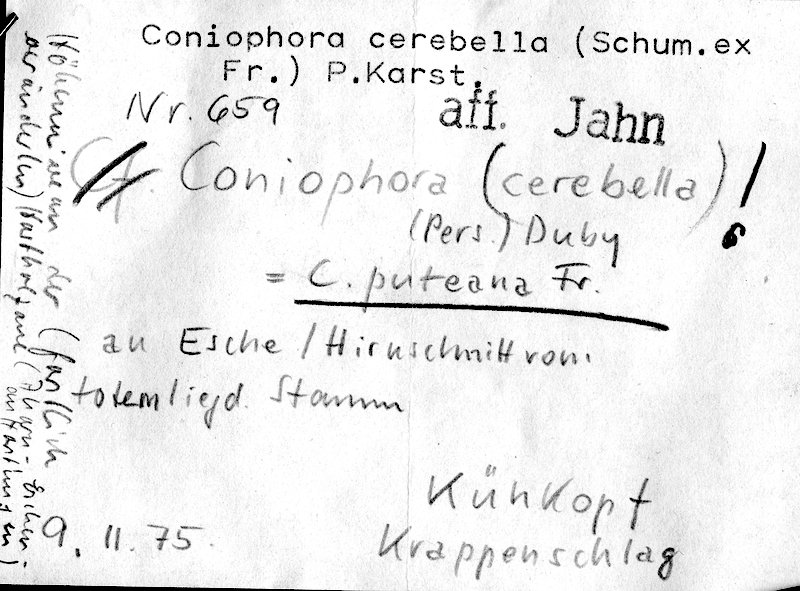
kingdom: Fungi
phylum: Basidiomycota
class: Agaricomycetes
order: Boletales
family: Coniophoraceae
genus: Coniophora
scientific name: Coniophora puteana
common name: Cellar fungus
